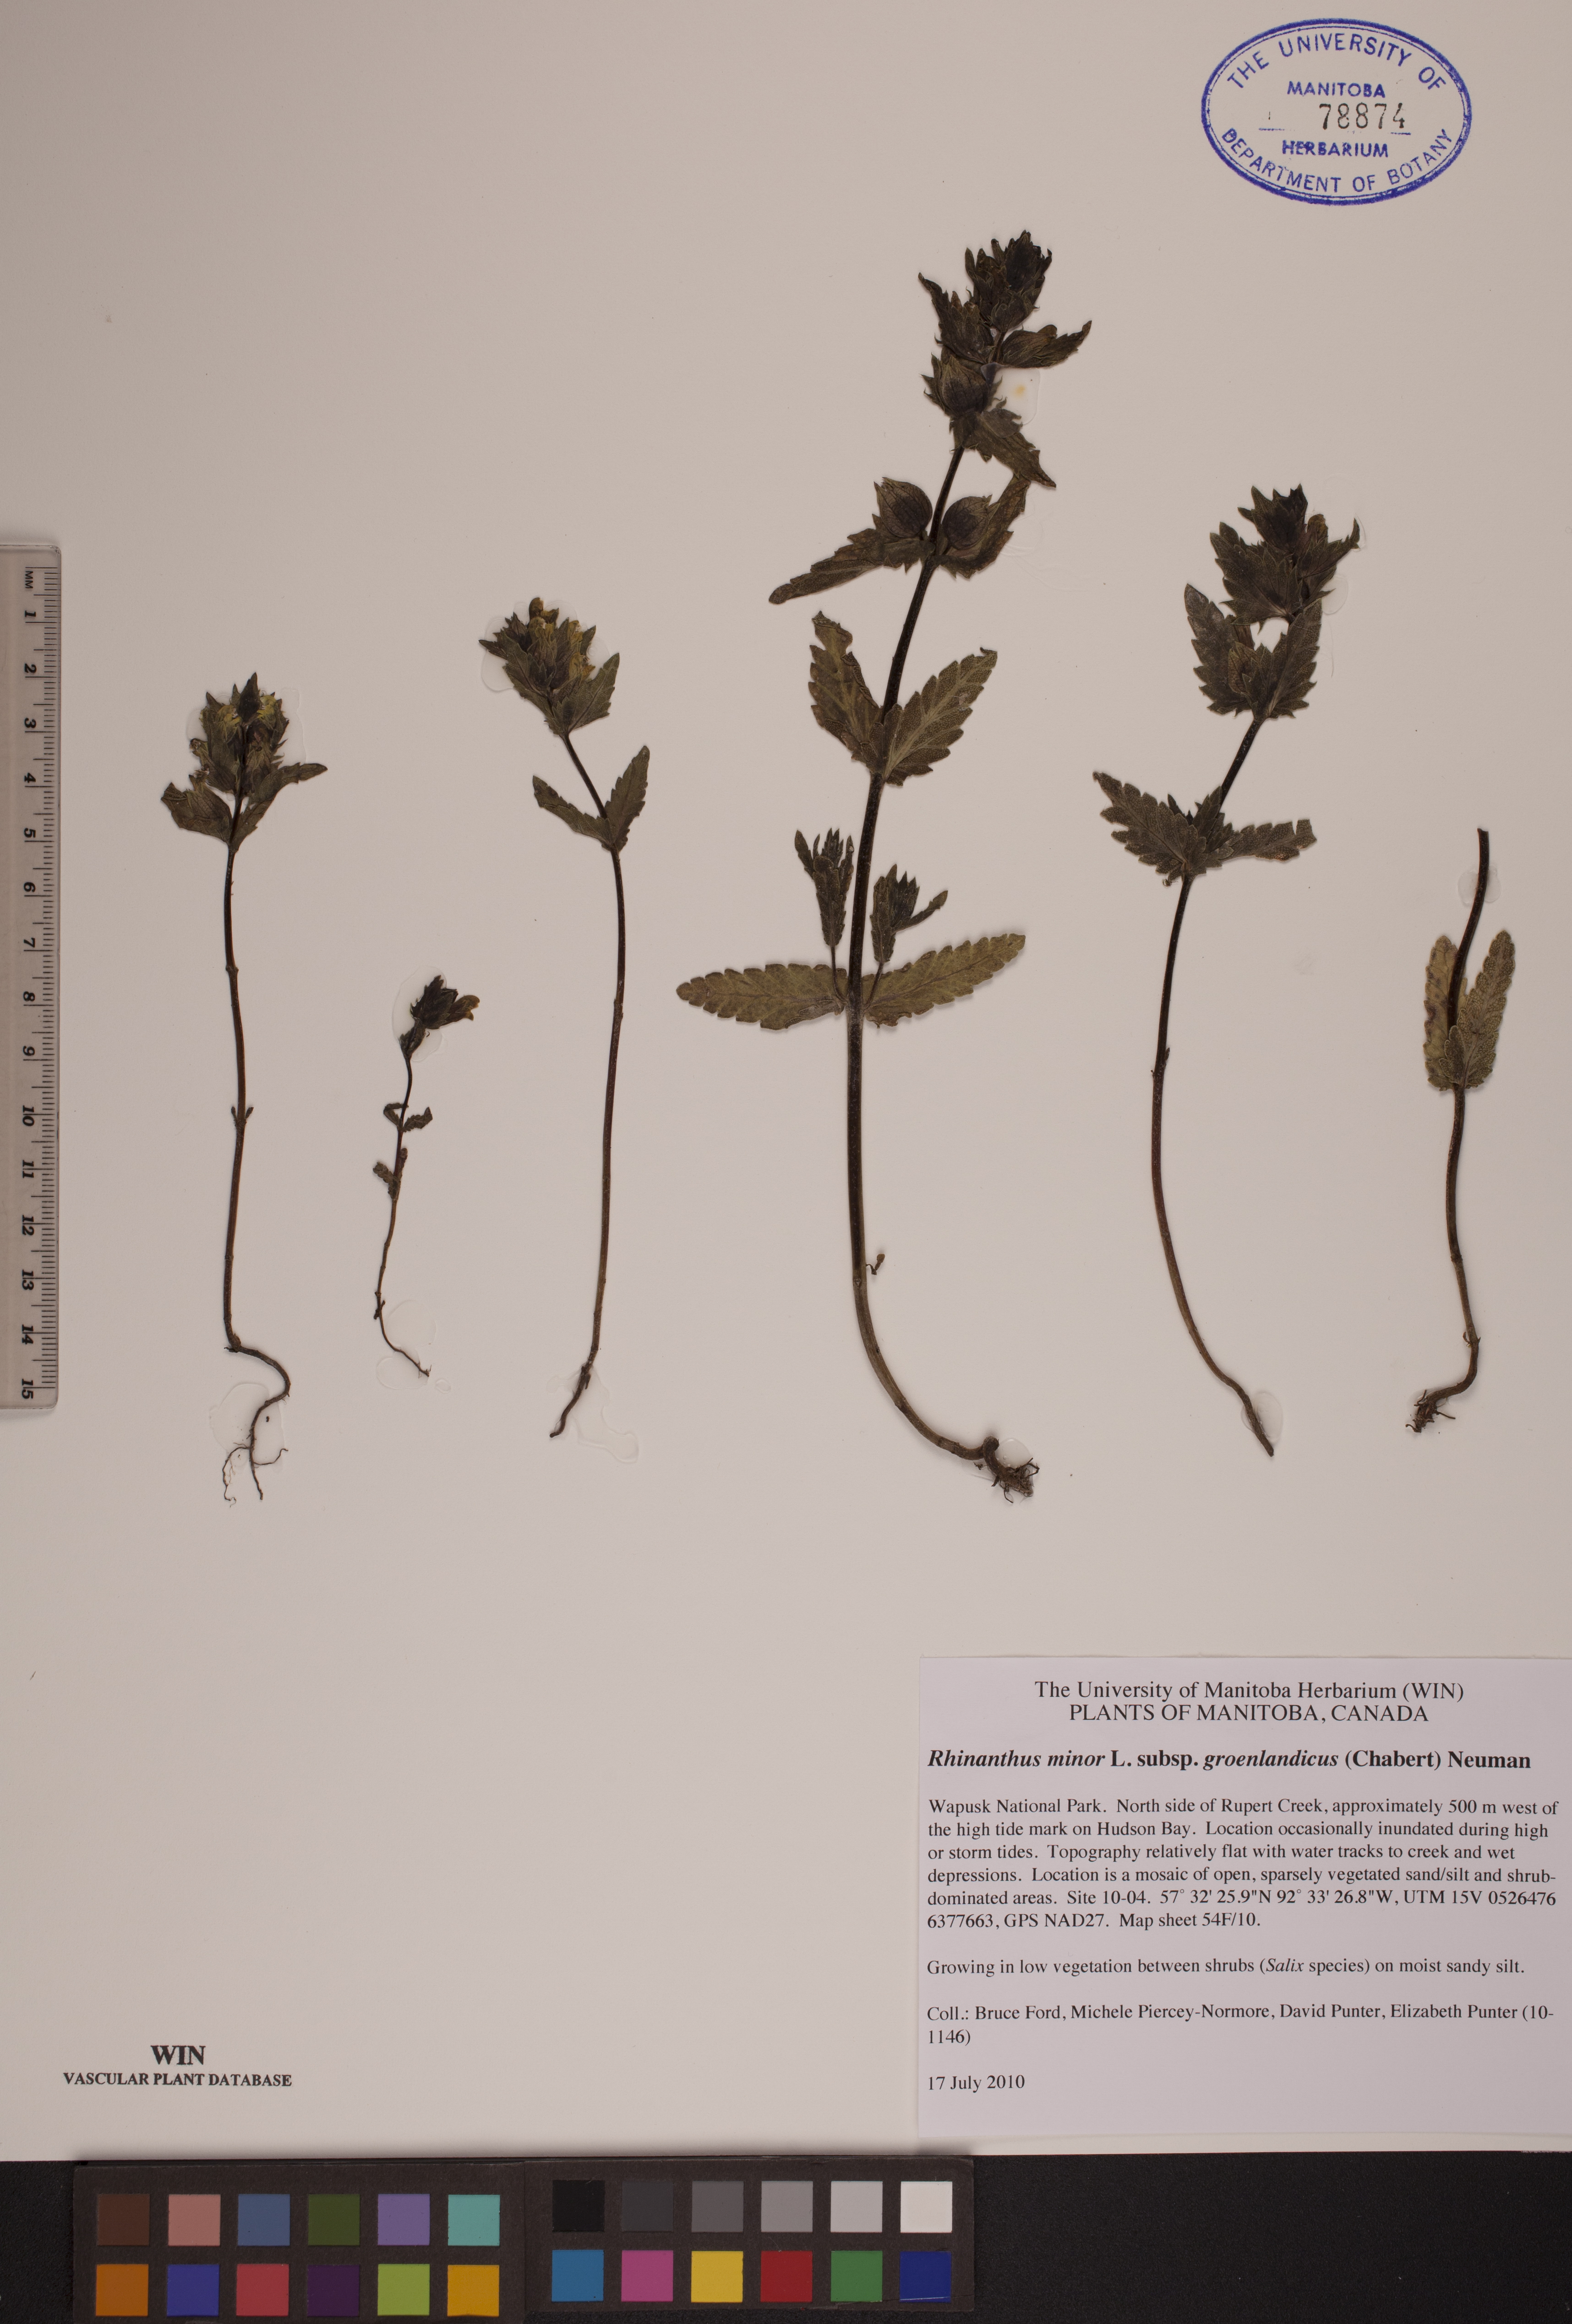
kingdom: Plantae
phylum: Tracheophyta
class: Magnoliopsida
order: Lamiales
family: Orobanchaceae
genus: Rhinanthus
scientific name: Rhinanthus groenlandicus
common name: Little yellow rattle
